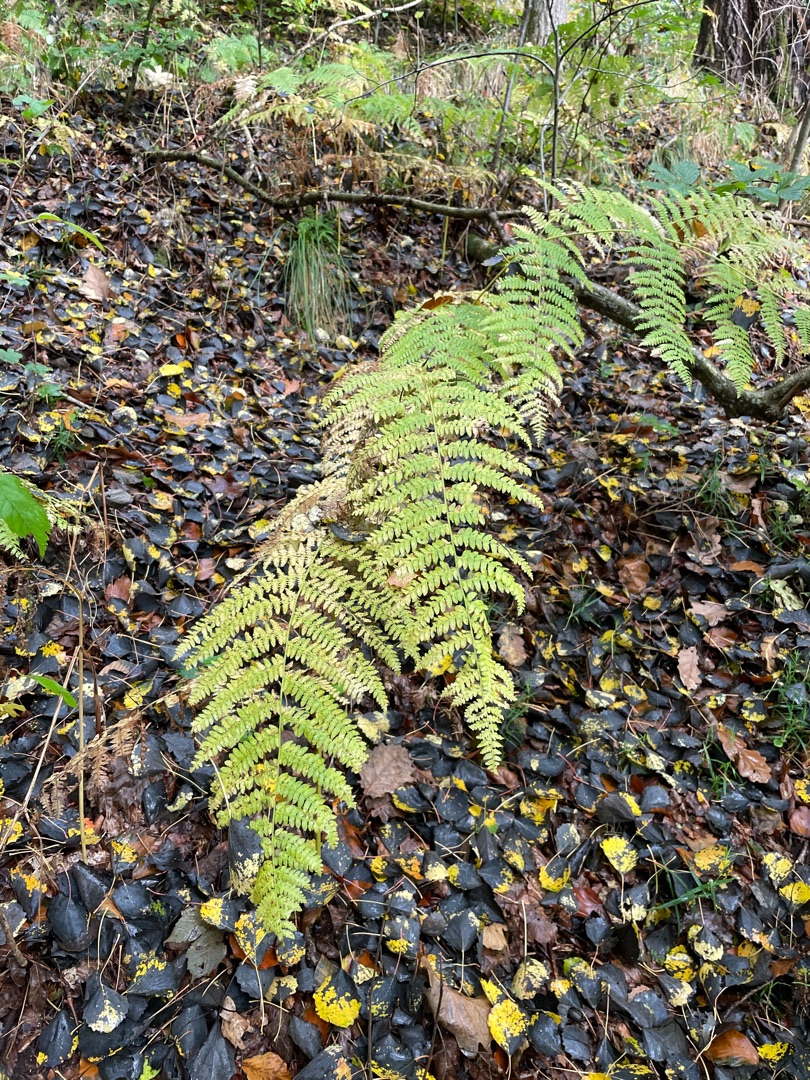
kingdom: Plantae
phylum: Tracheophyta
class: Polypodiopsida
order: Polypodiales
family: Dennstaedtiaceae
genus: Pteridium
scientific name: Pteridium aquilinum
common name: Ørnebregne
